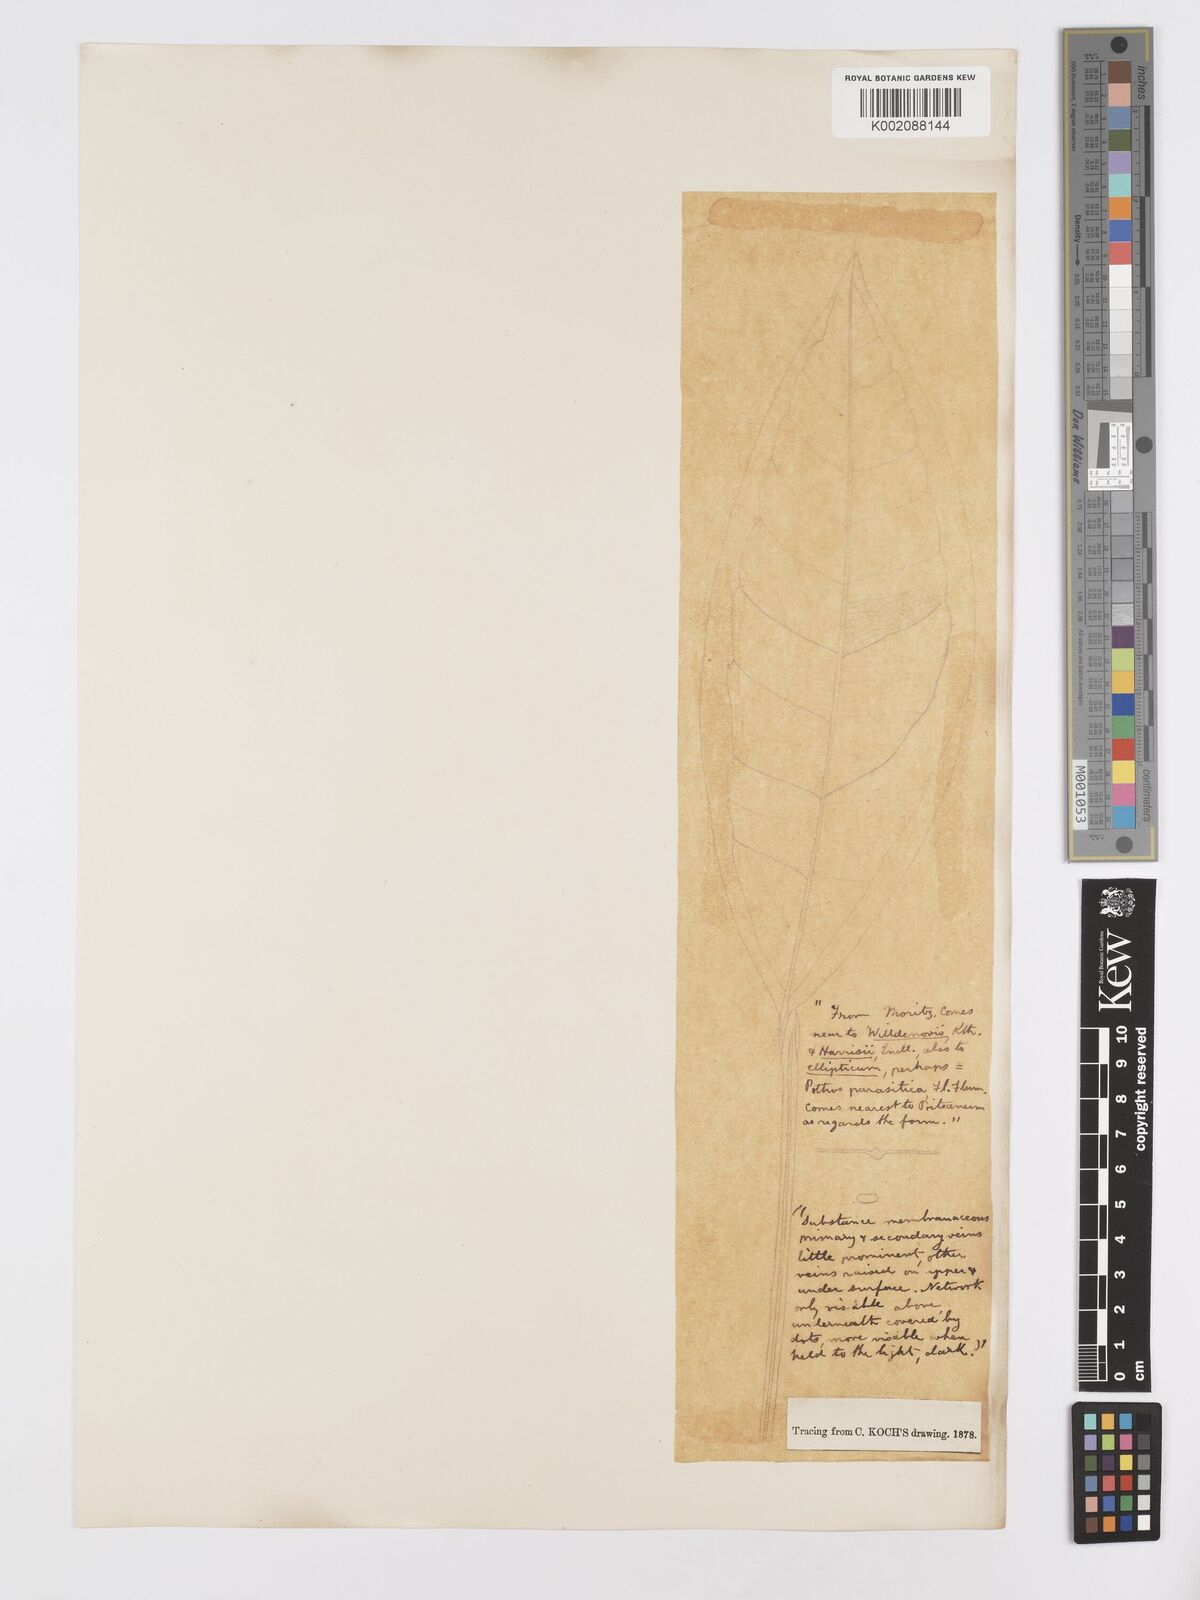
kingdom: Plantae
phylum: Tracheophyta
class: Liliopsida
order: Alismatales
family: Araceae
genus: Anthurium
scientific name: Anthurium
